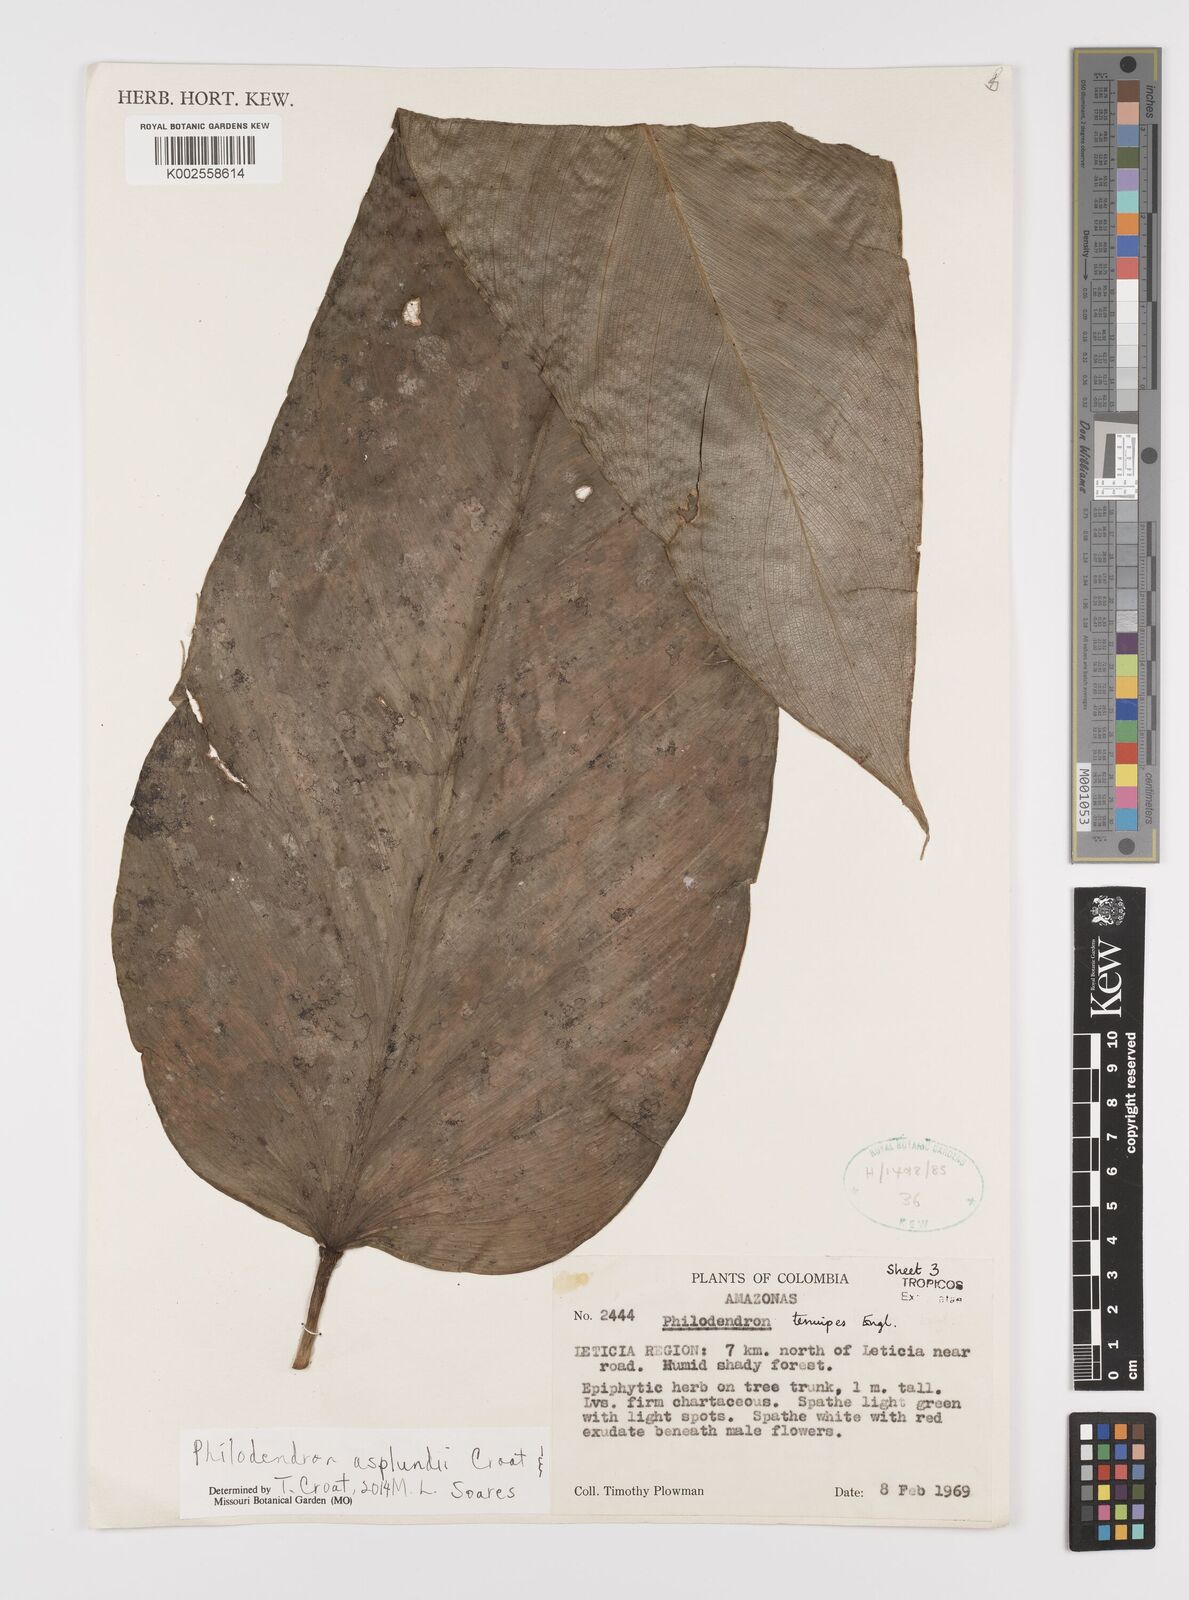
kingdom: Plantae
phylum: Tracheophyta
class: Liliopsida
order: Alismatales
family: Araceae
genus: Philodendron
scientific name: Philodendron asplundii
